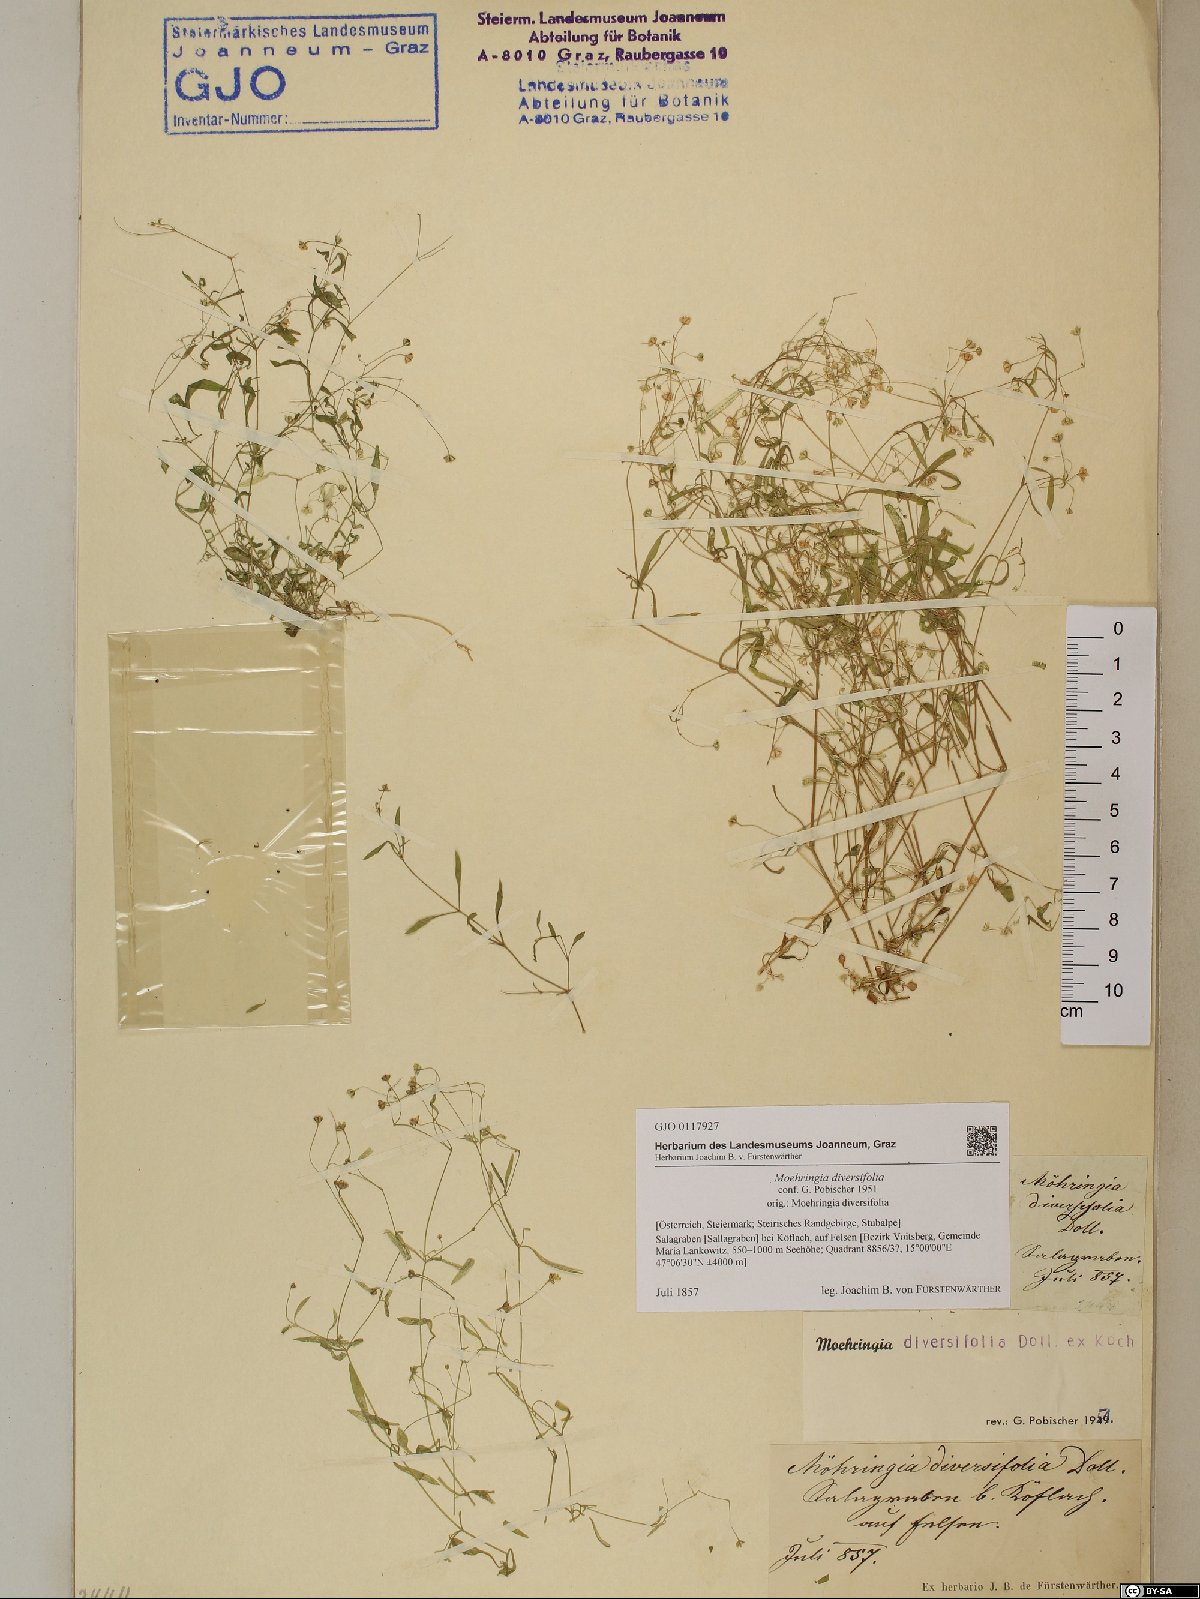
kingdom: Plantae
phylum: Tracheophyta
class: Magnoliopsida
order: Caryophyllales
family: Caryophyllaceae
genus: Moehringia
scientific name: Moehringia diversifolia
